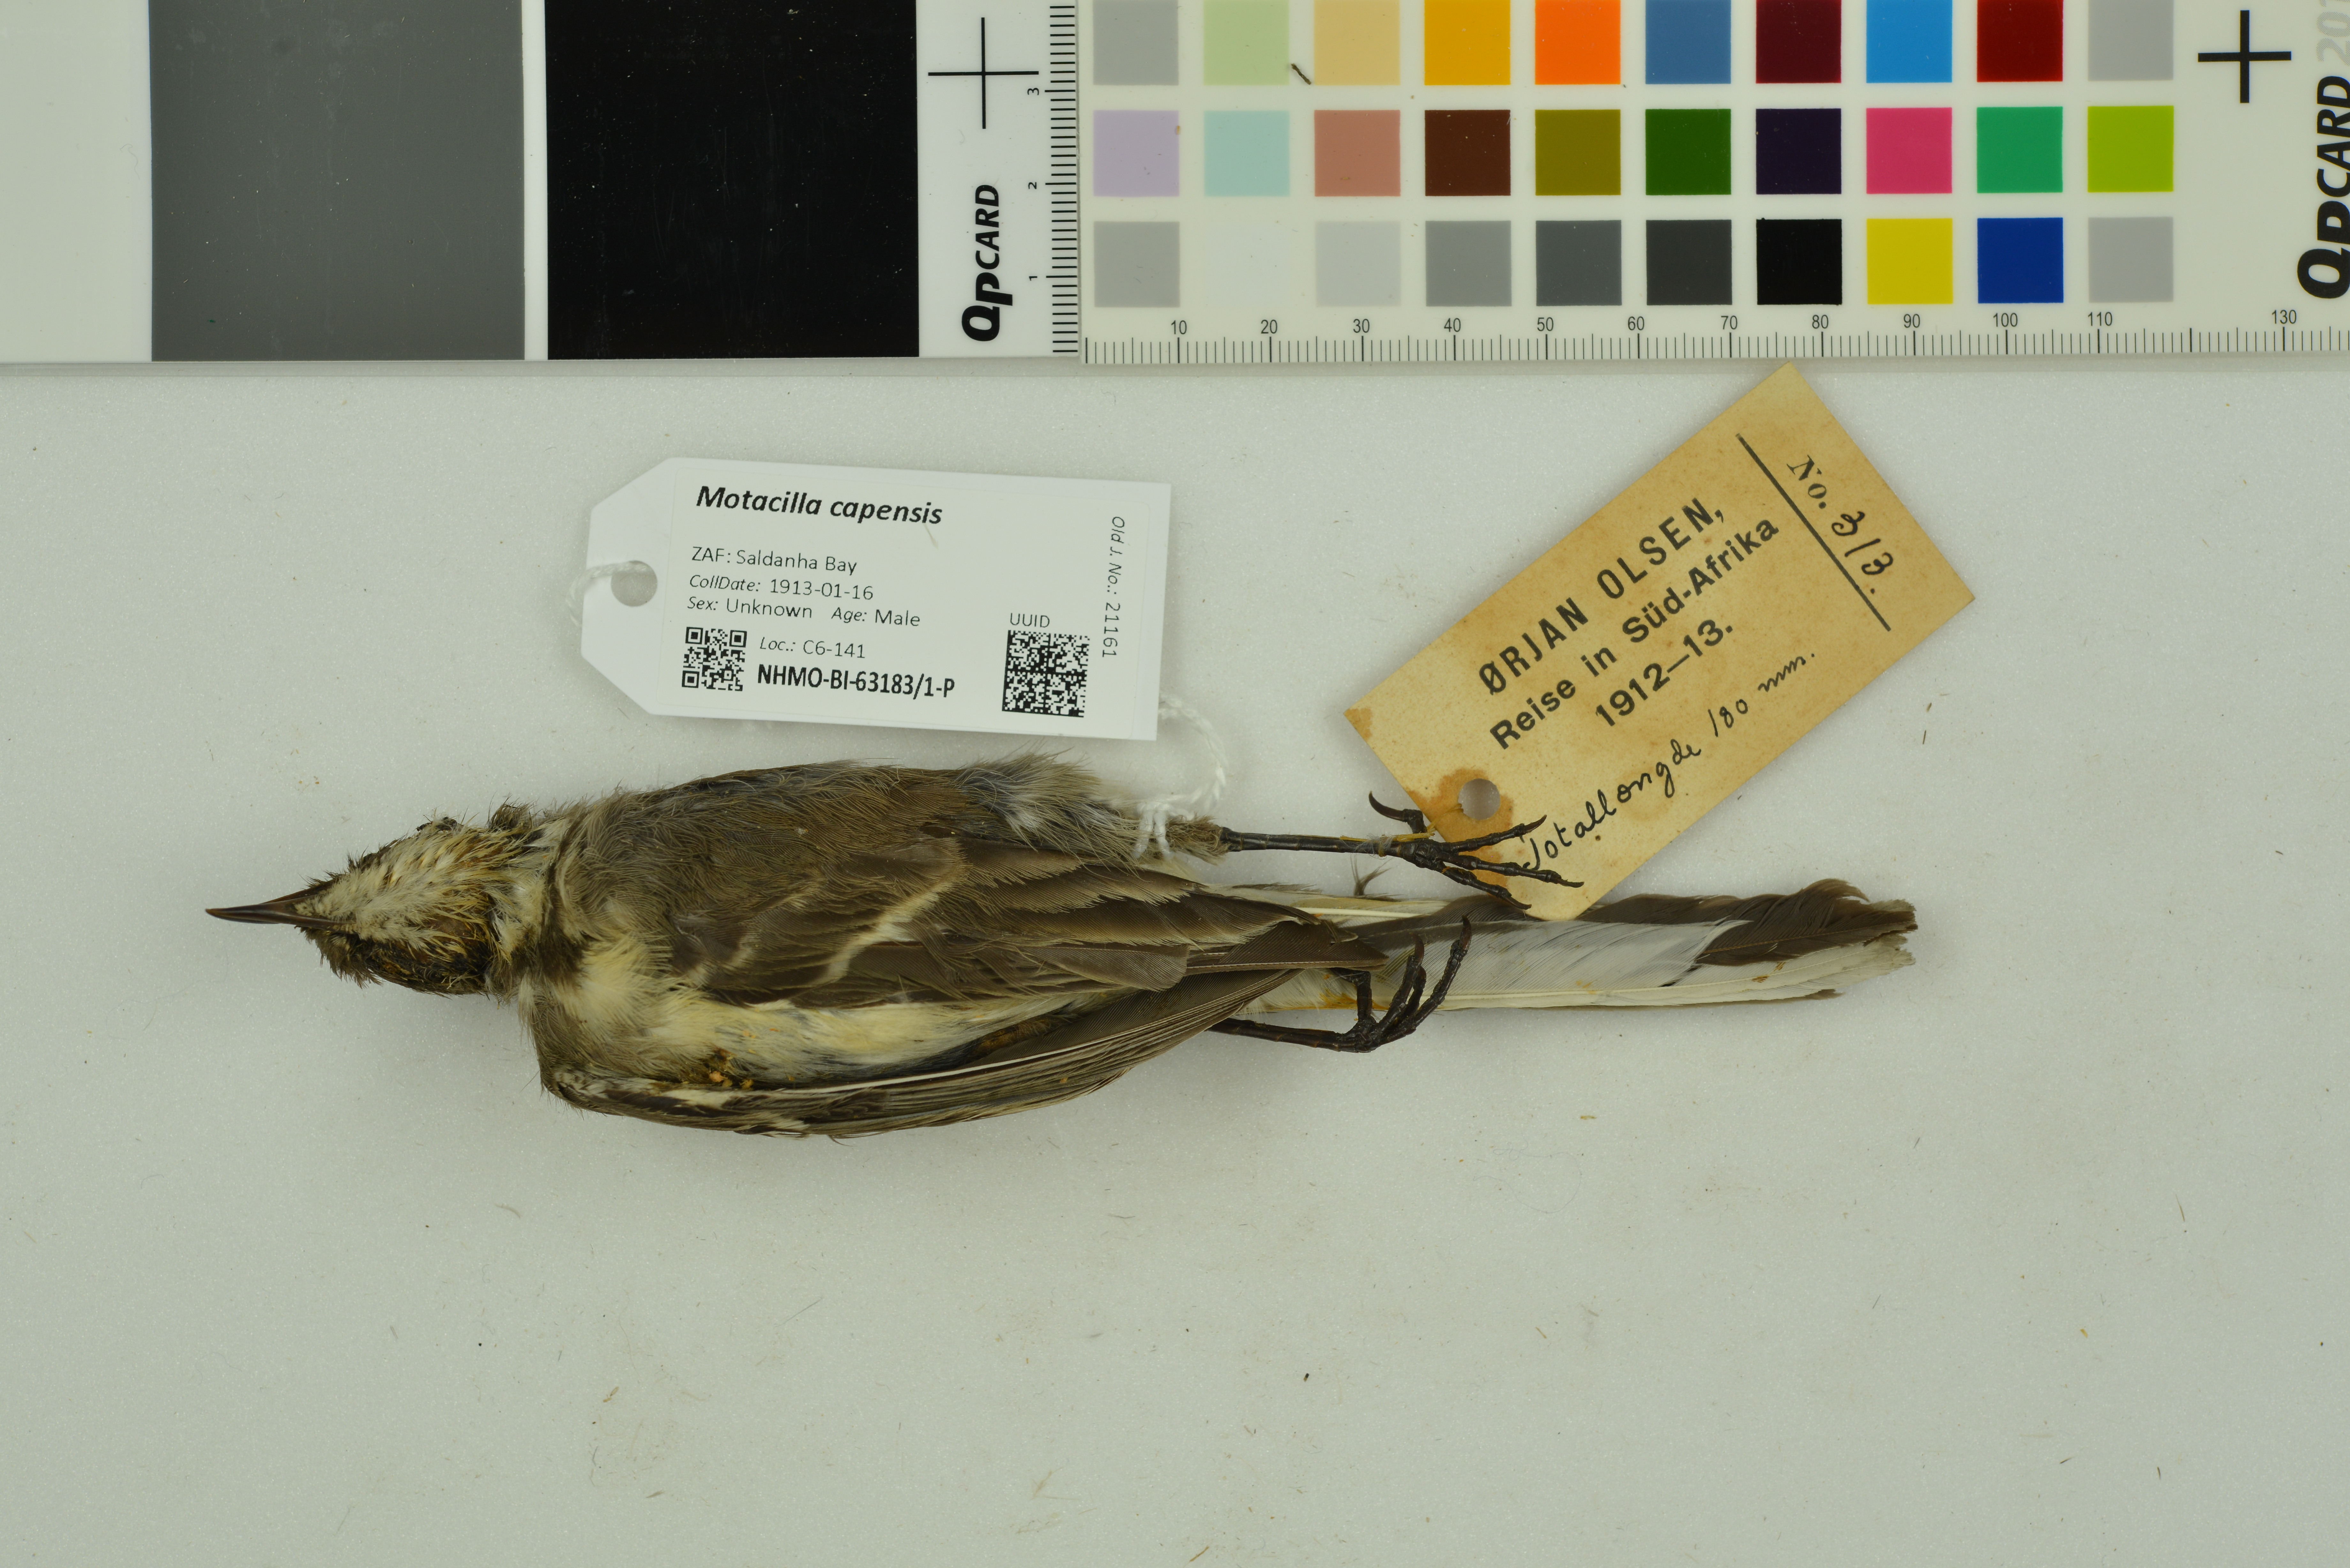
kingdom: Animalia
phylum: Chordata
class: Aves
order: Passeriformes
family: Motacillidae
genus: Motacilla
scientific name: Motacilla capensis
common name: Cape wagtail
